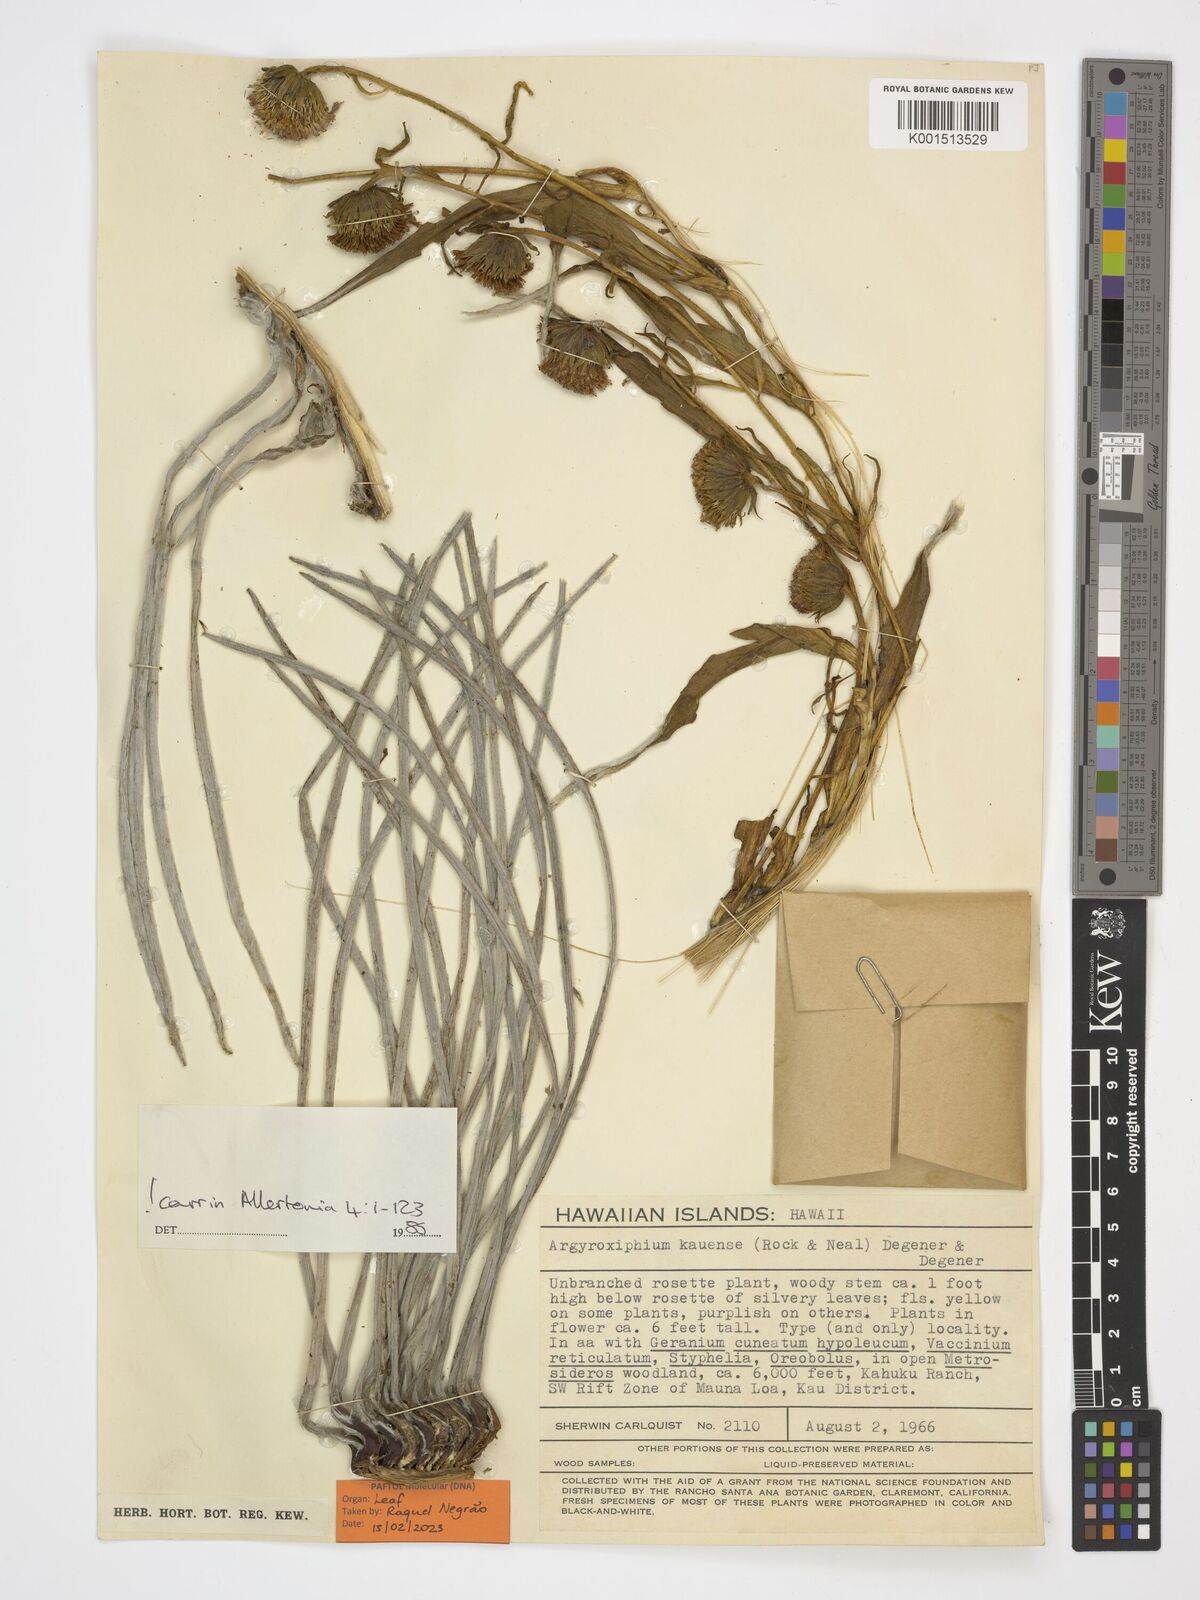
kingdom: Plantae
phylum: Tracheophyta
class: Magnoliopsida
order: Asterales
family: Asteraceae
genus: Argyroxiphium
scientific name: Argyroxiphium kauense
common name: Kau silversword
